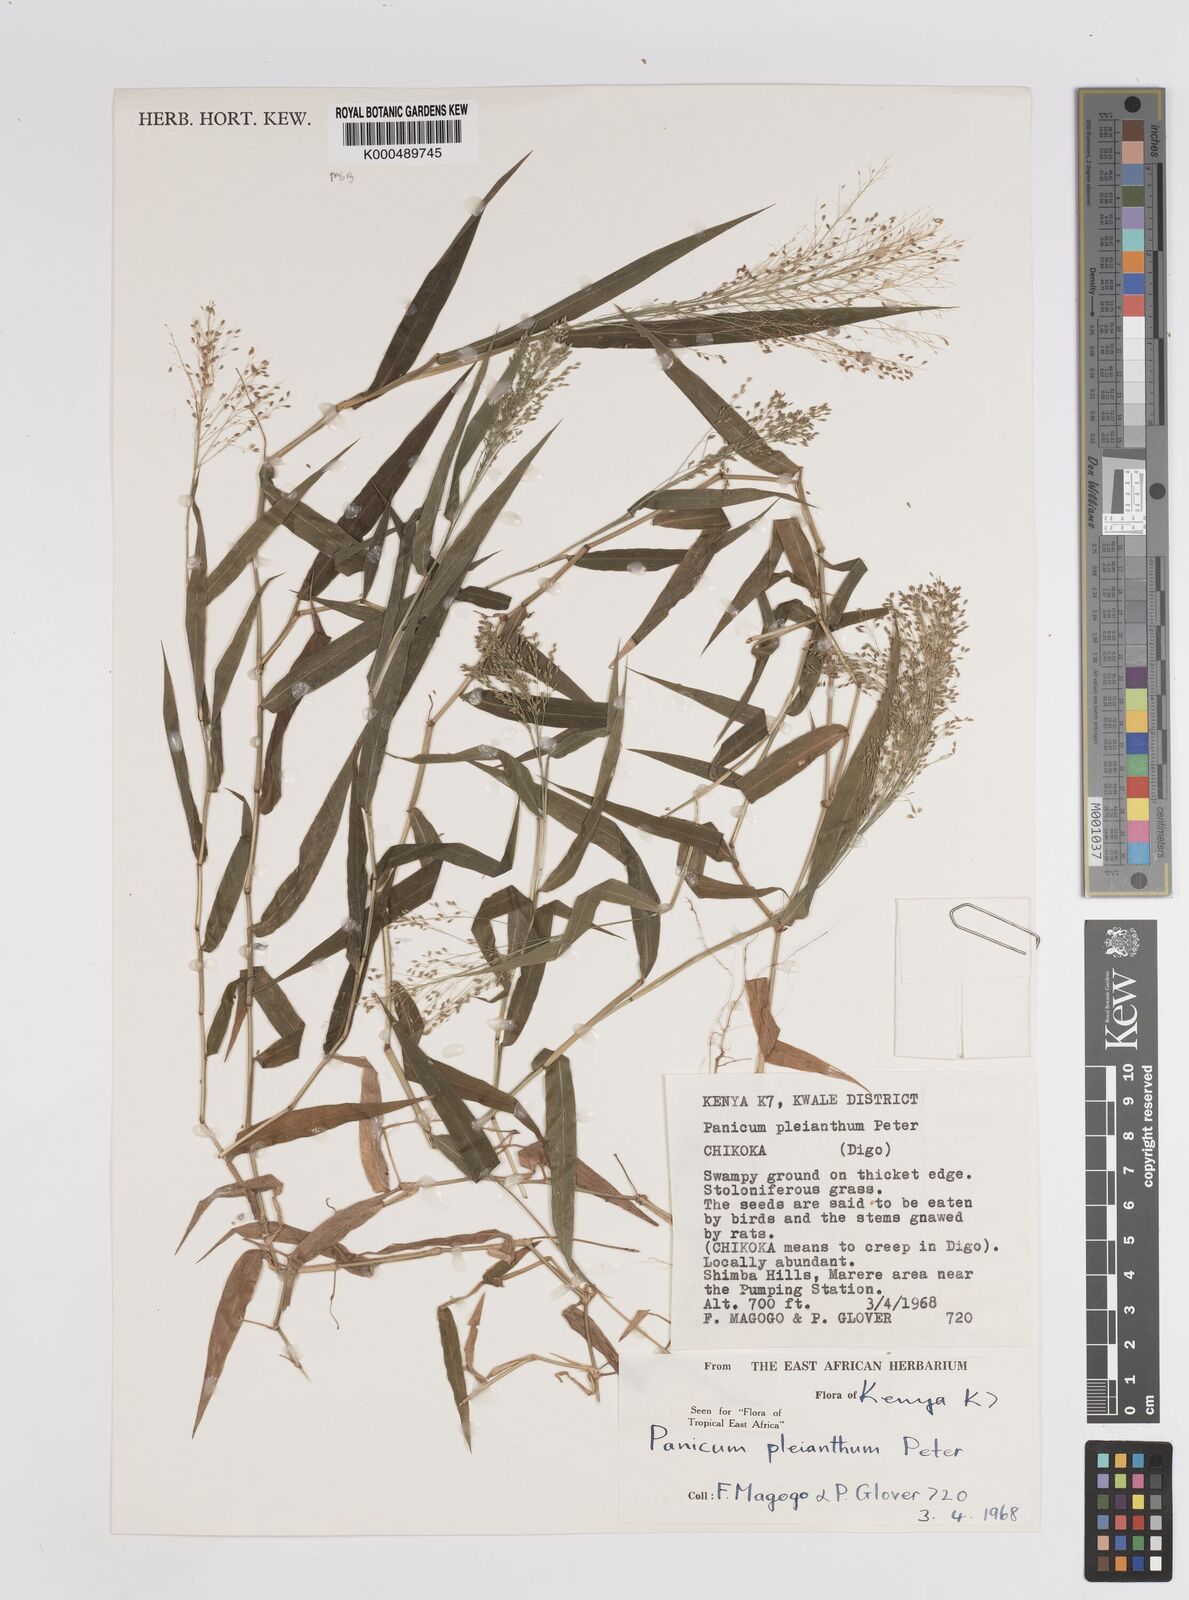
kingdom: Plantae
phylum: Tracheophyta
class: Liliopsida
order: Poales
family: Poaceae
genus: Panicum
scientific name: Panicum pleianthum
